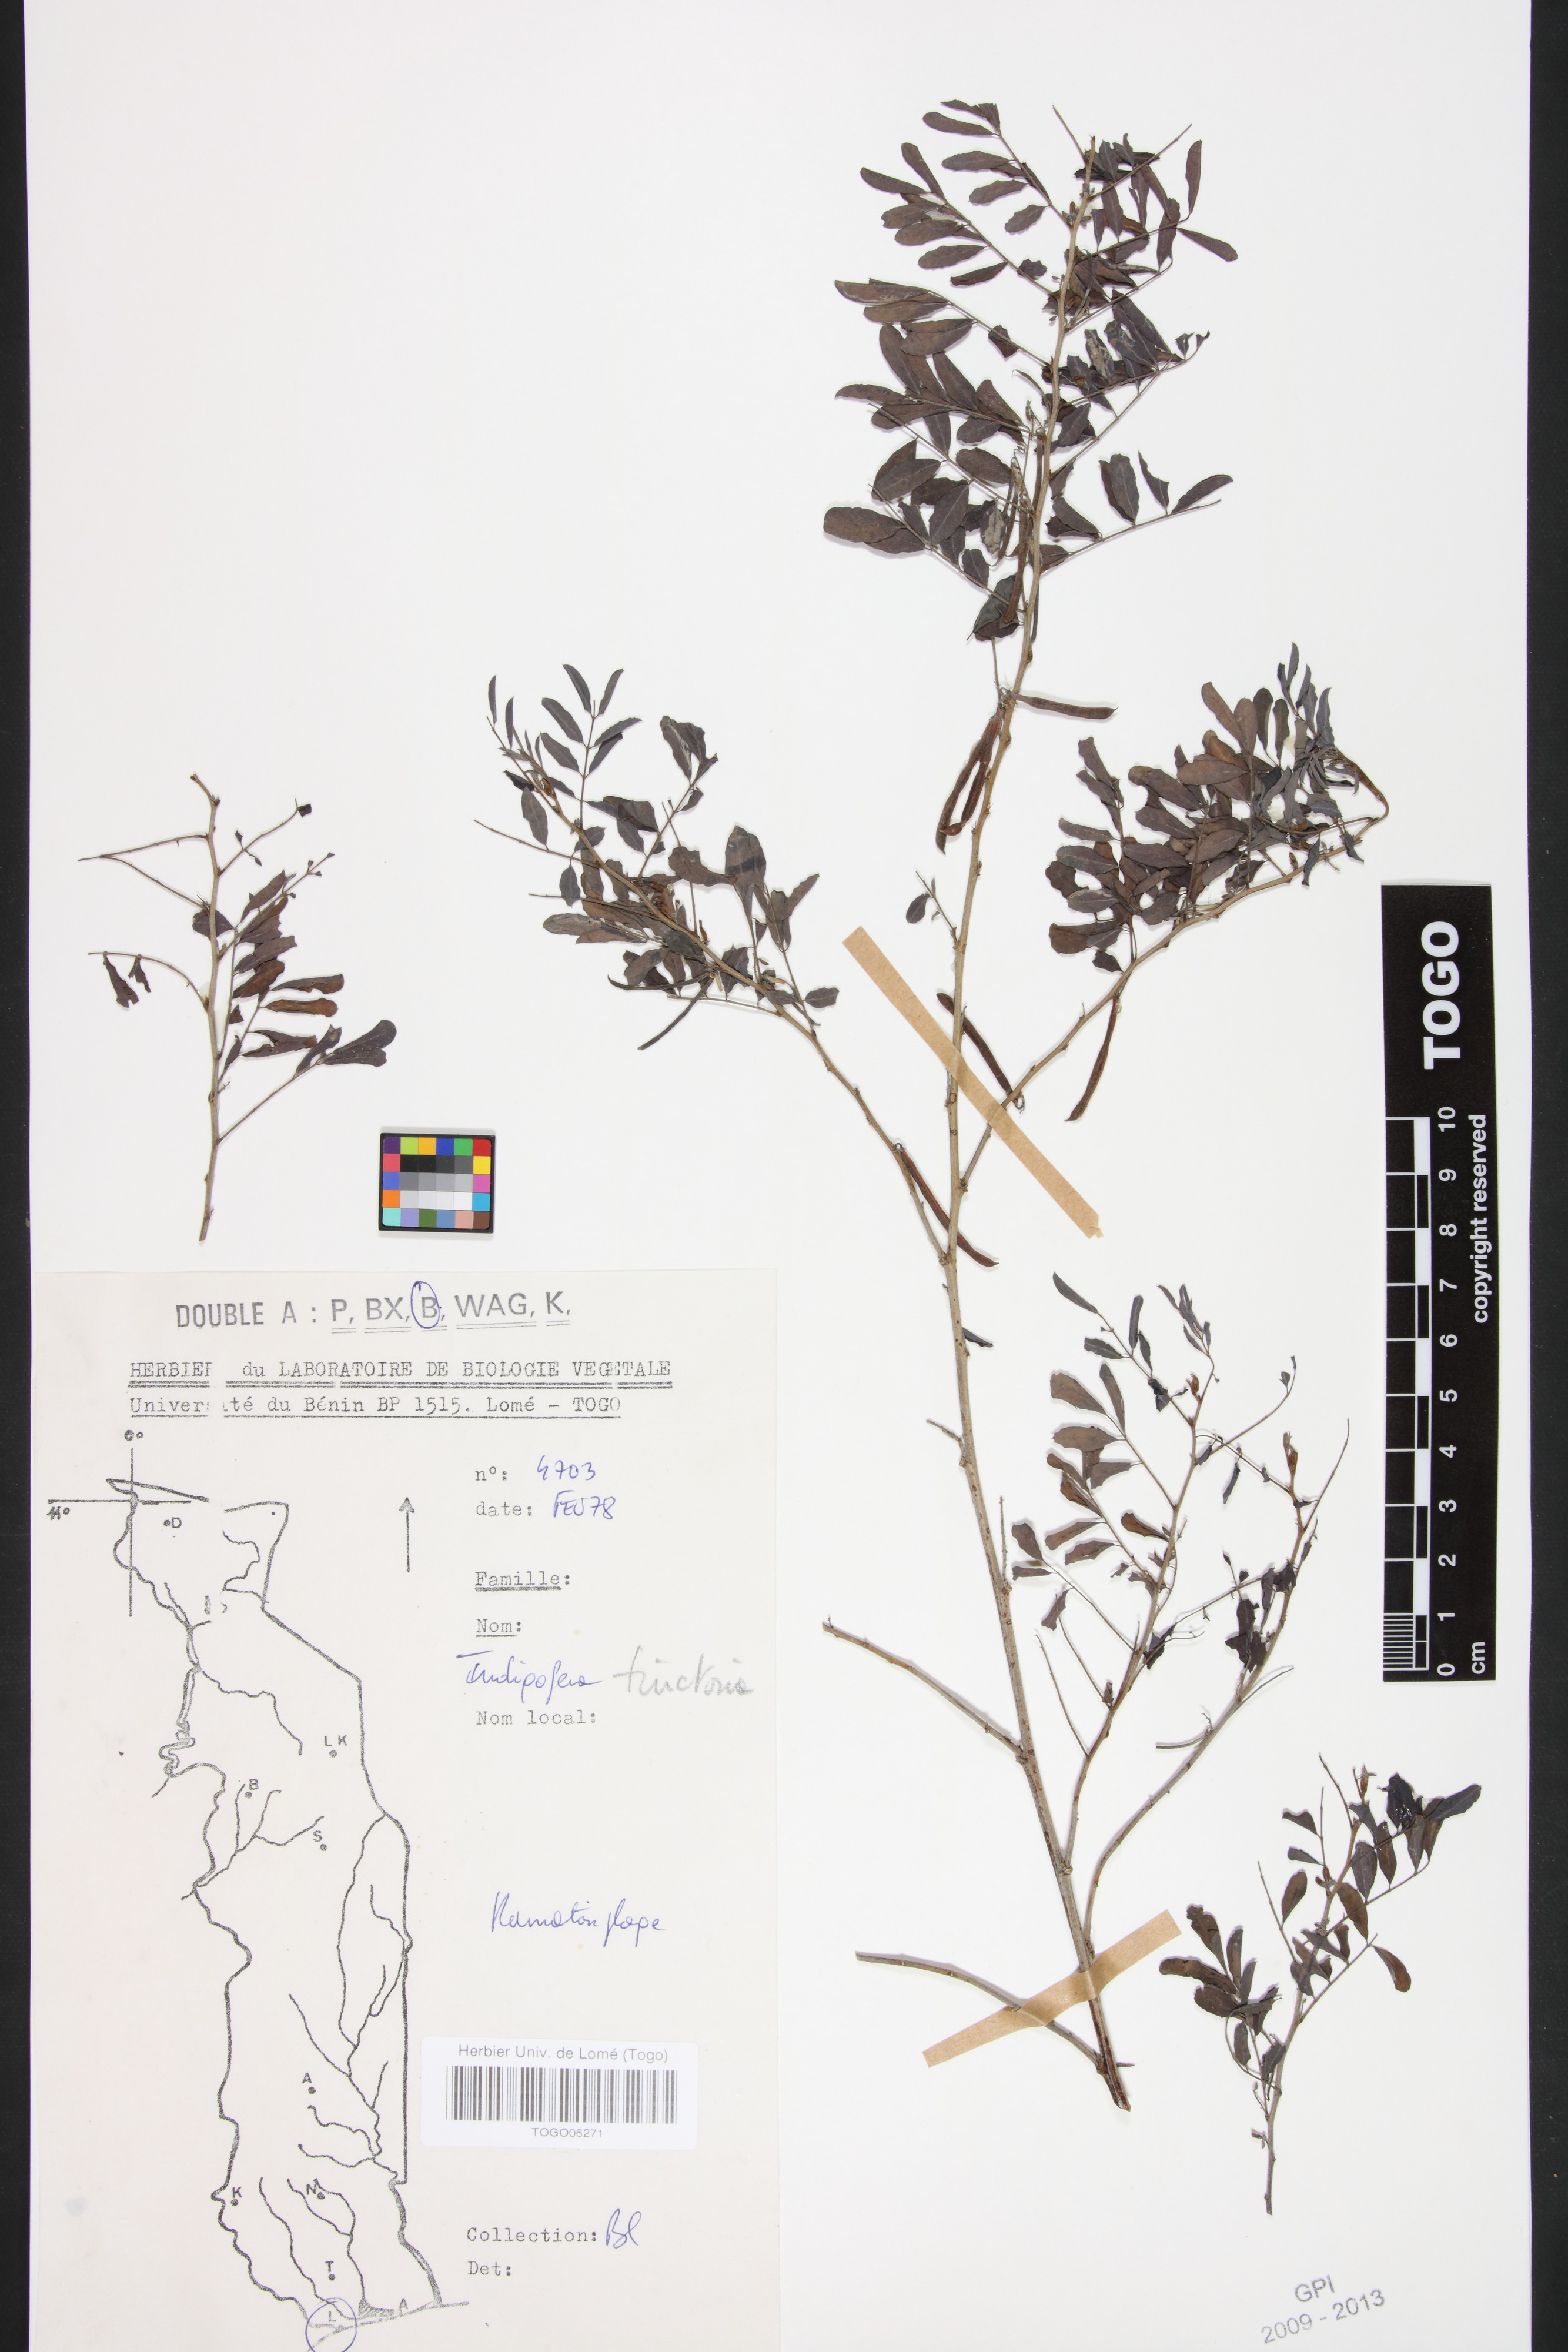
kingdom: Plantae
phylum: Tracheophyta
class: Magnoliopsida
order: Fabales
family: Fabaceae
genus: Indigofera
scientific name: Indigofera tinctoria
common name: True indigo
